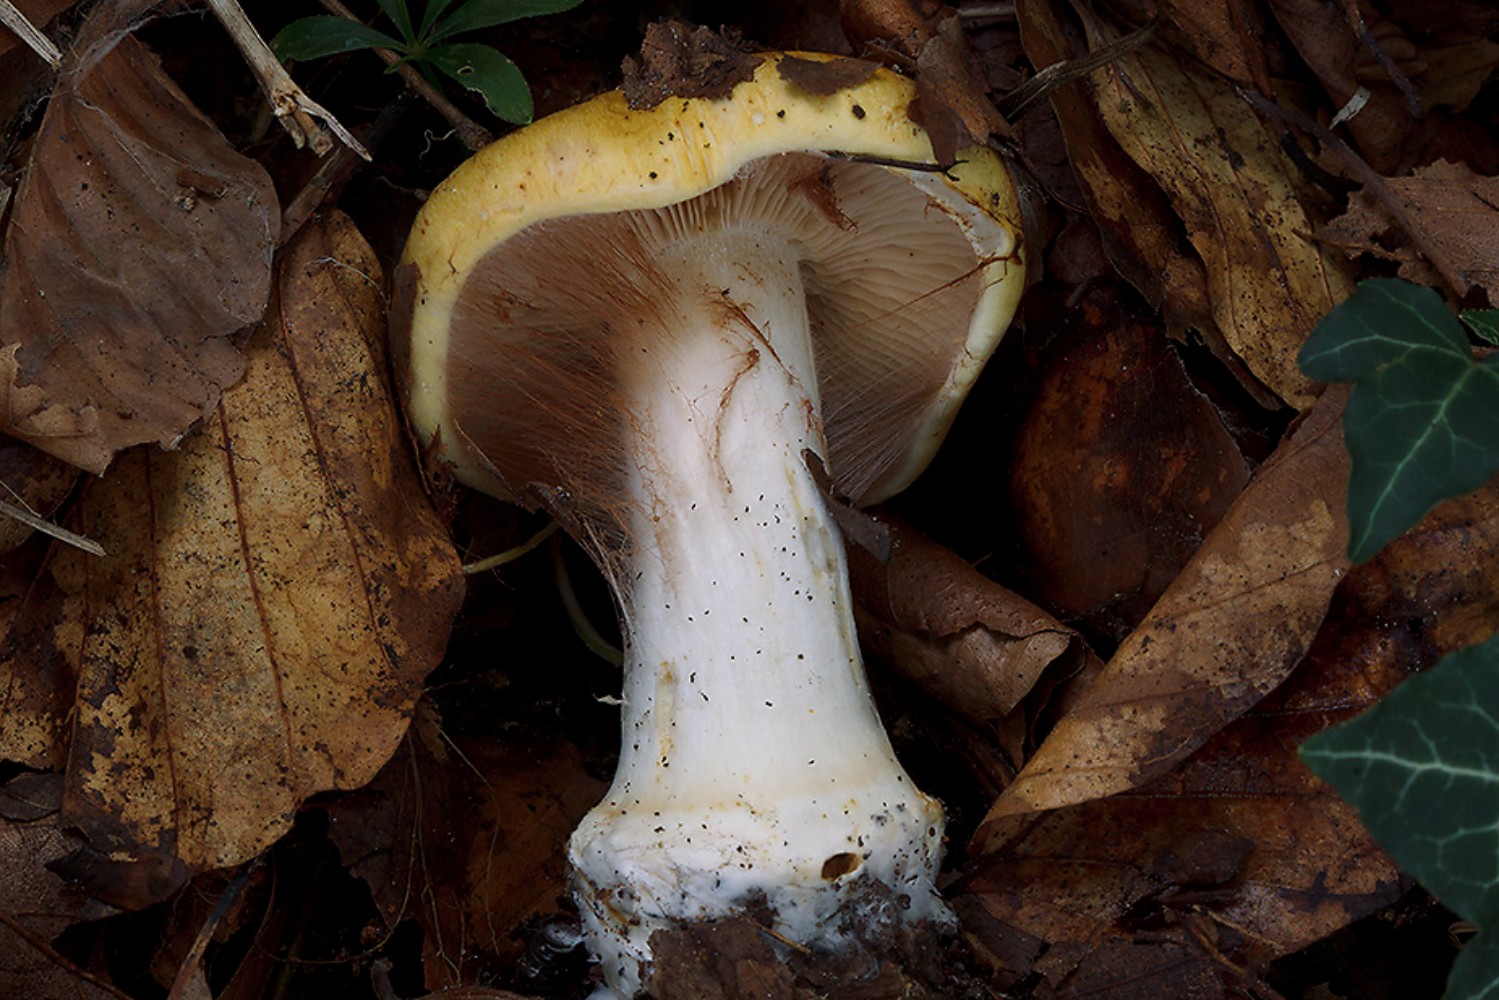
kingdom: Fungi
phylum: Basidiomycota
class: Agaricomycetes
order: Agaricales
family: Cortinariaceae
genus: Phlegmacium
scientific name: Phlegmacium caesiocortinatum
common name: rundsporet slørhat
